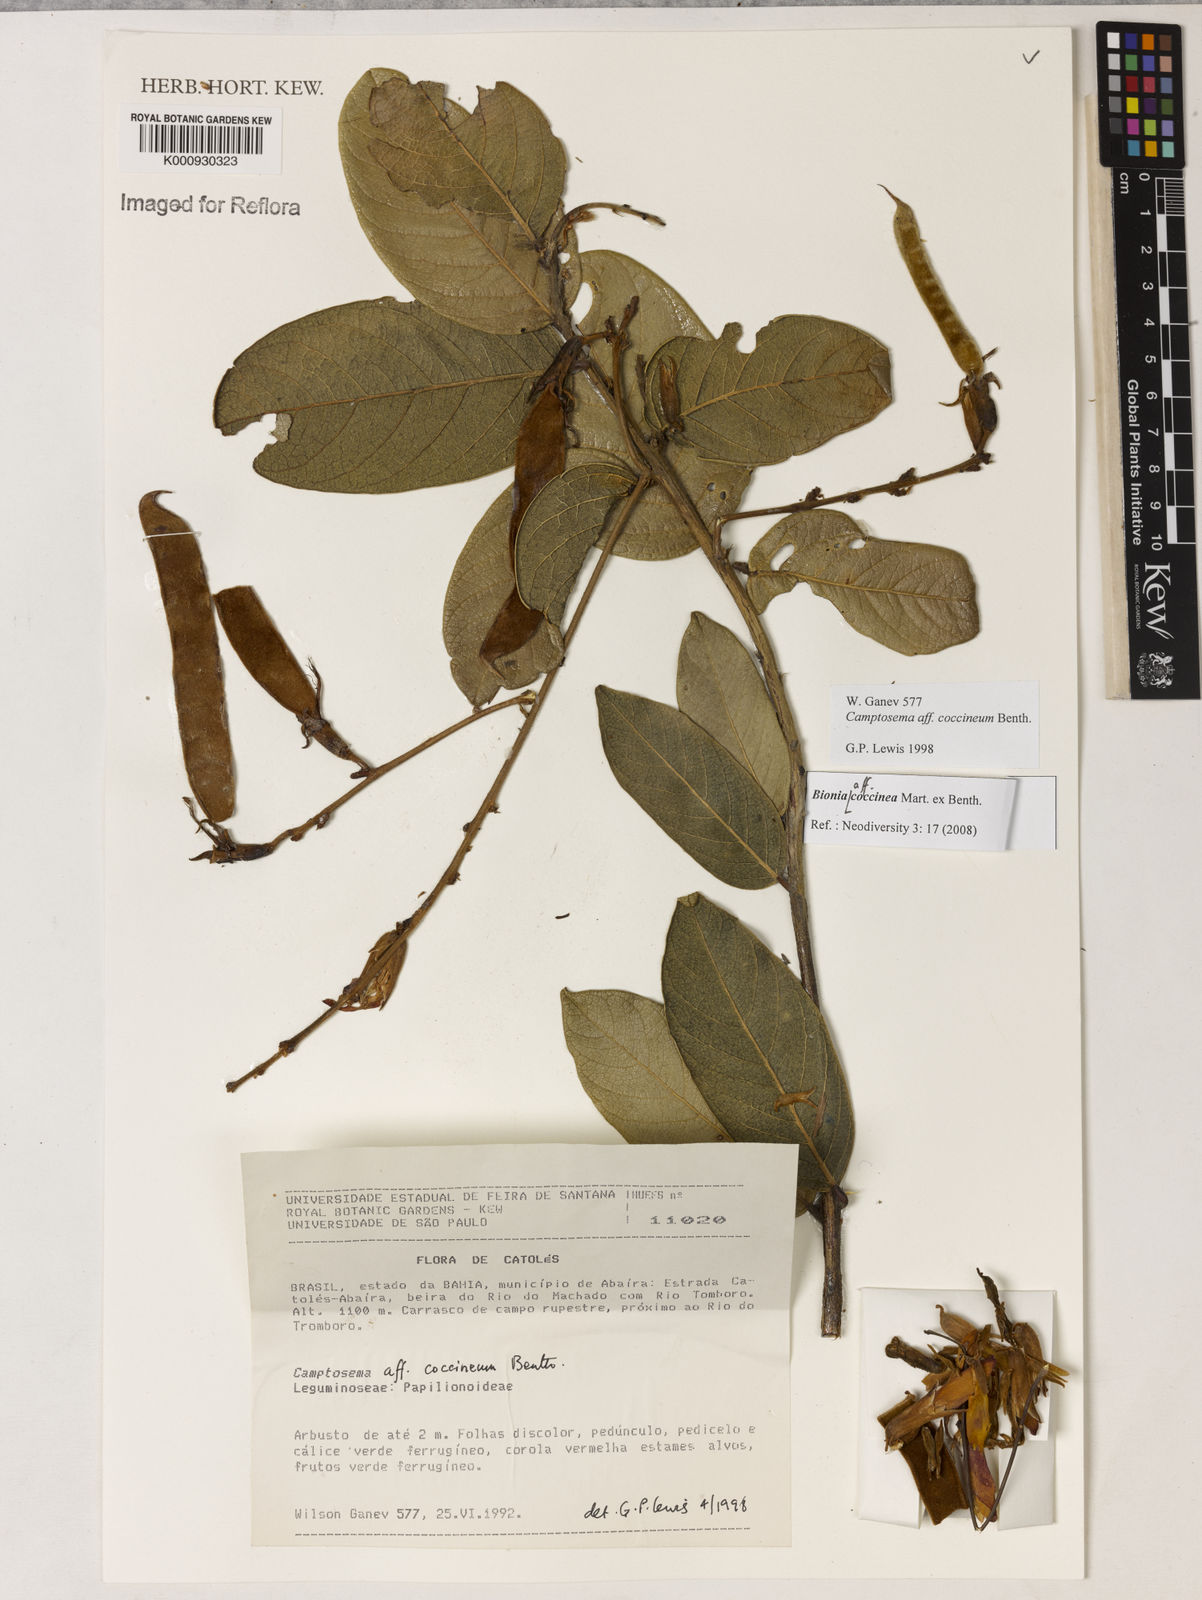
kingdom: Plantae
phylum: Tracheophyta
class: Magnoliopsida
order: Fabales
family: Fabaceae
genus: Camptosema
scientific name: Camptosema coccineum
